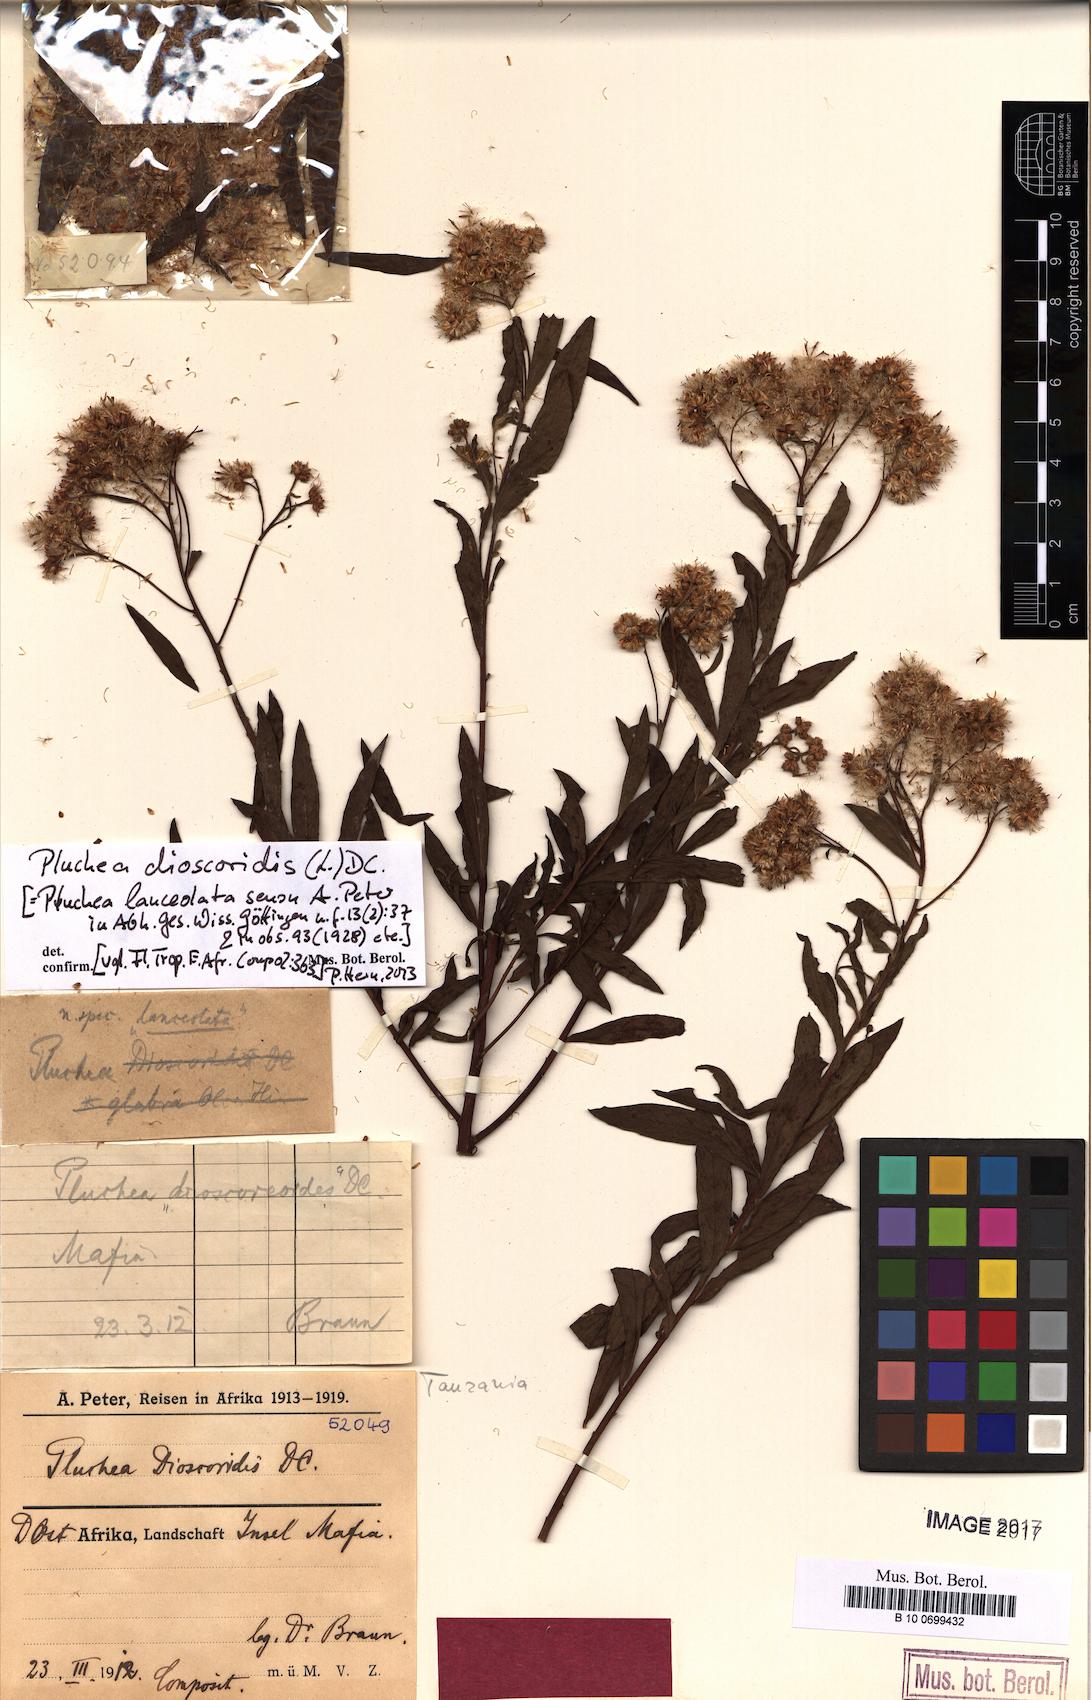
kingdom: Plantae
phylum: Tracheophyta
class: Magnoliopsida
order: Asterales
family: Asteraceae
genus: Pluchea
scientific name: Pluchea dioscoridis
